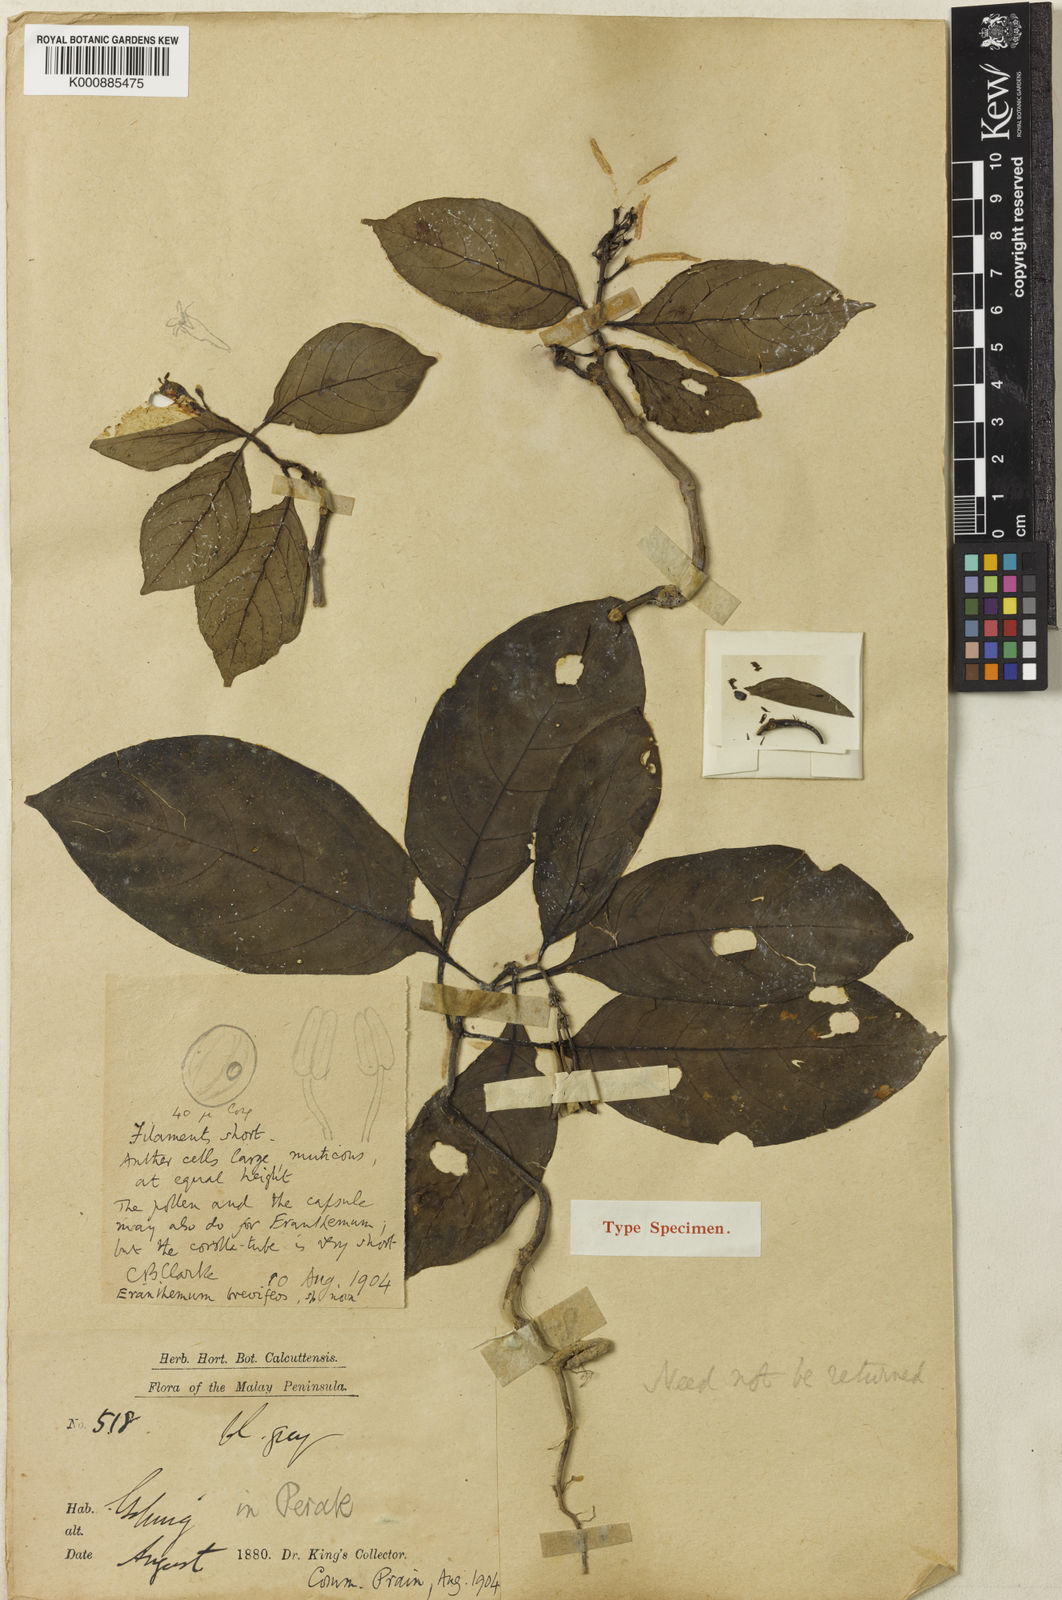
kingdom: Plantae
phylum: Tracheophyta
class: Magnoliopsida
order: Lamiales
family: Acanthaceae
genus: Pseuderanthemum
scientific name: Pseuderanthemum breviflos
